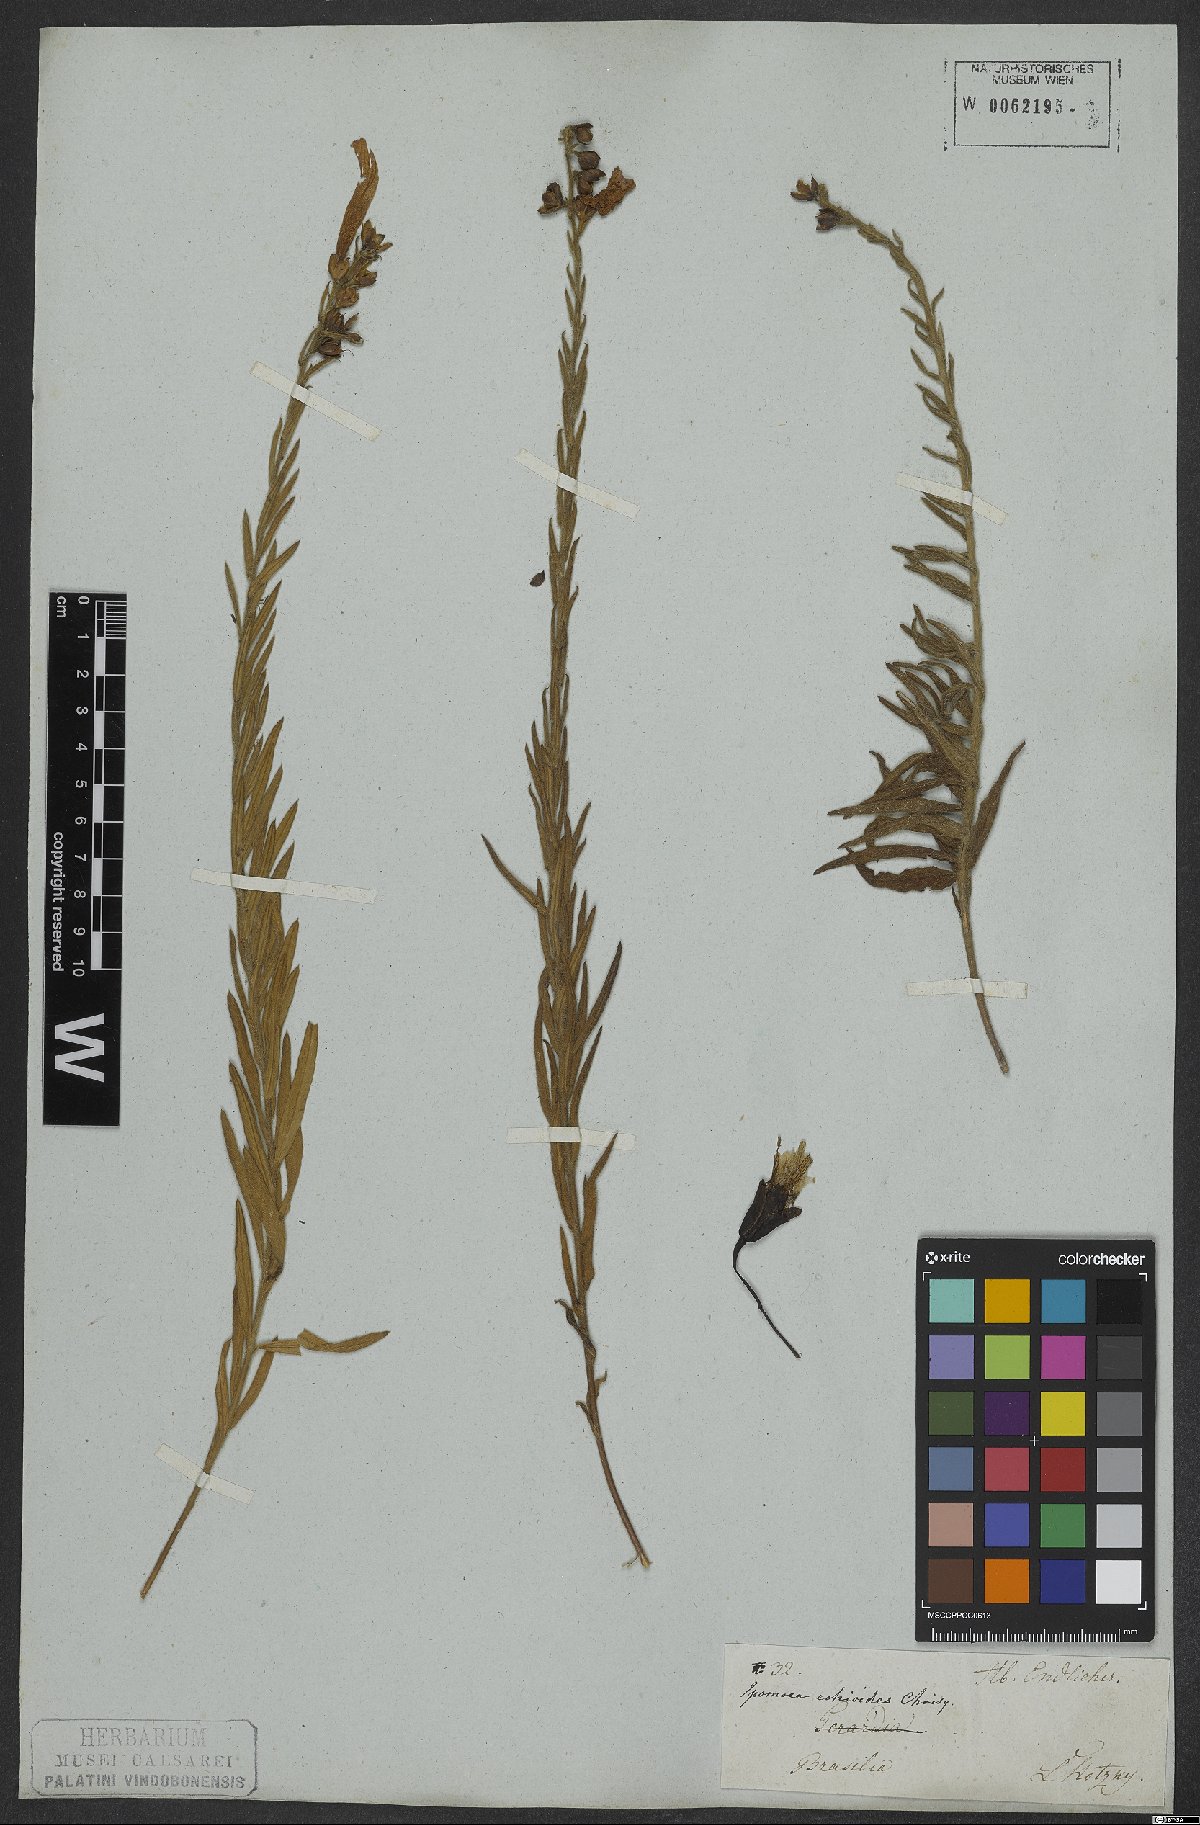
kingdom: Plantae
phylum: Tracheophyta
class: Magnoliopsida
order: Solanales
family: Convolvulaceae
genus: Ipomoea
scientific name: Ipomoea paulistana
